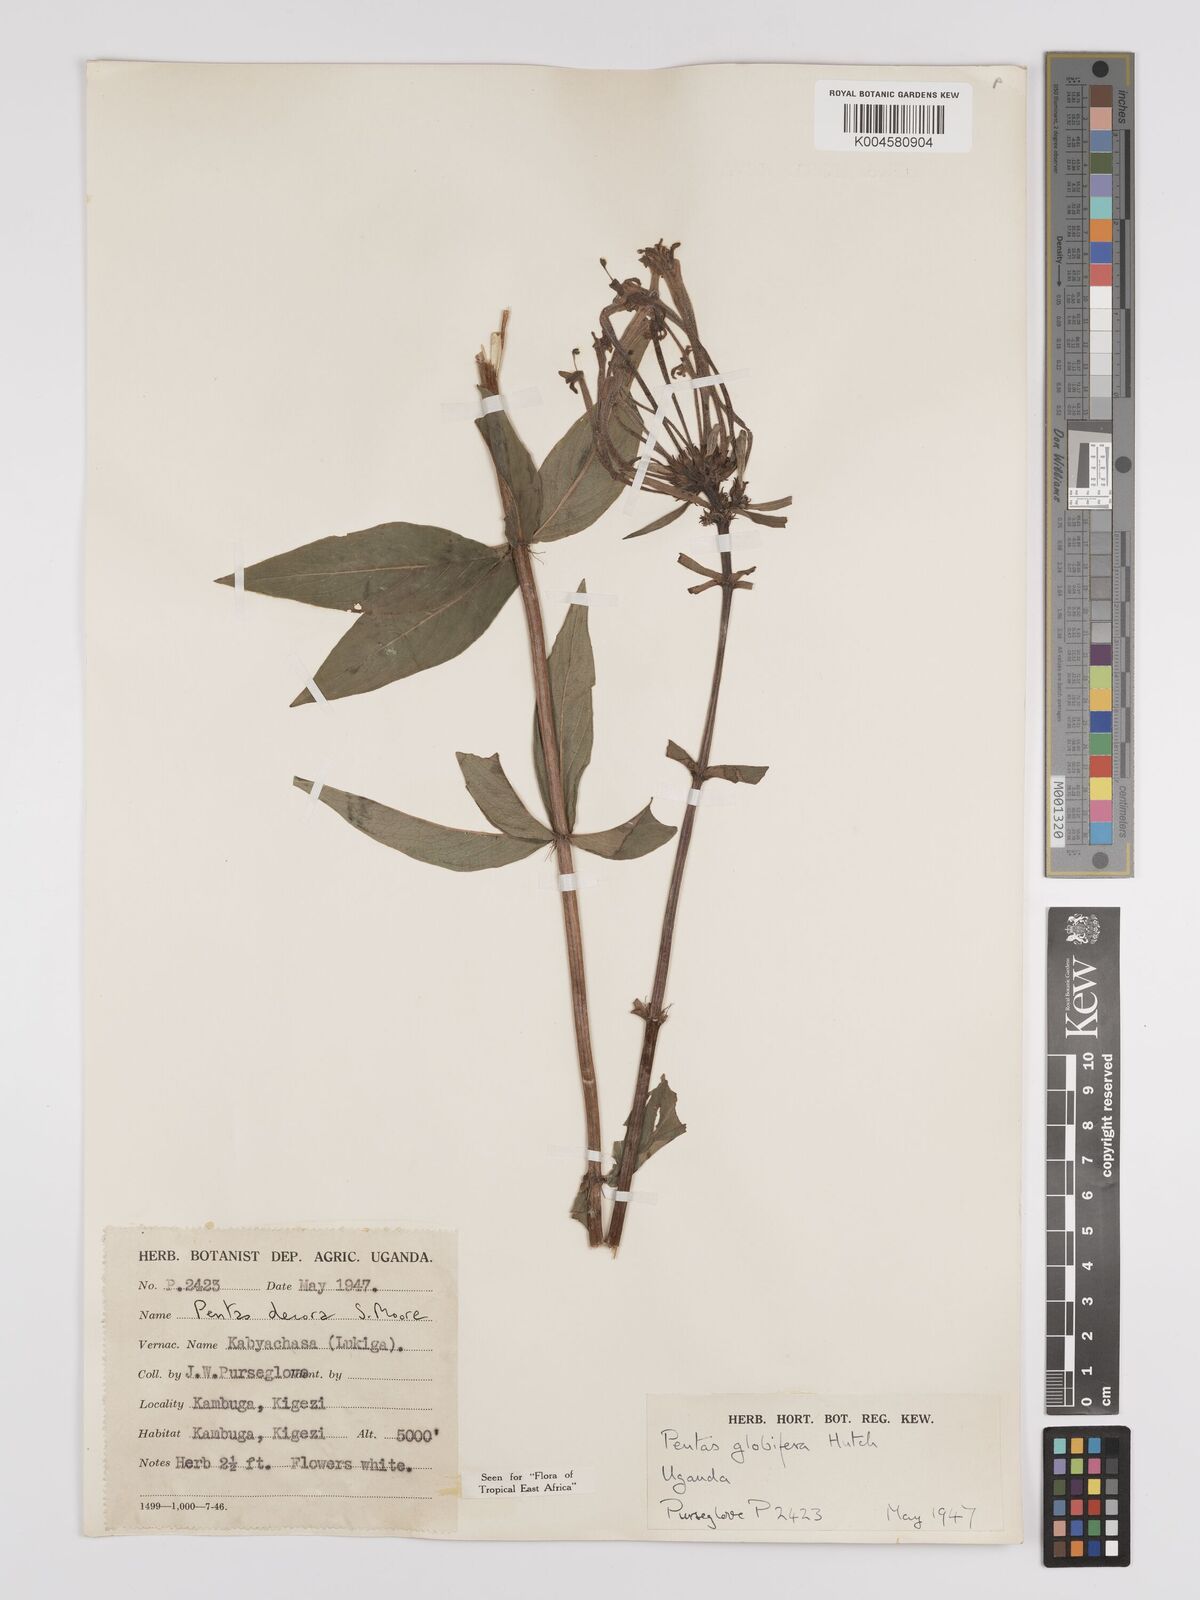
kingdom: Plantae
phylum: Tracheophyta
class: Magnoliopsida
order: Gentianales
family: Rubiaceae
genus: Dolichopentas
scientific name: Dolichopentas decora
